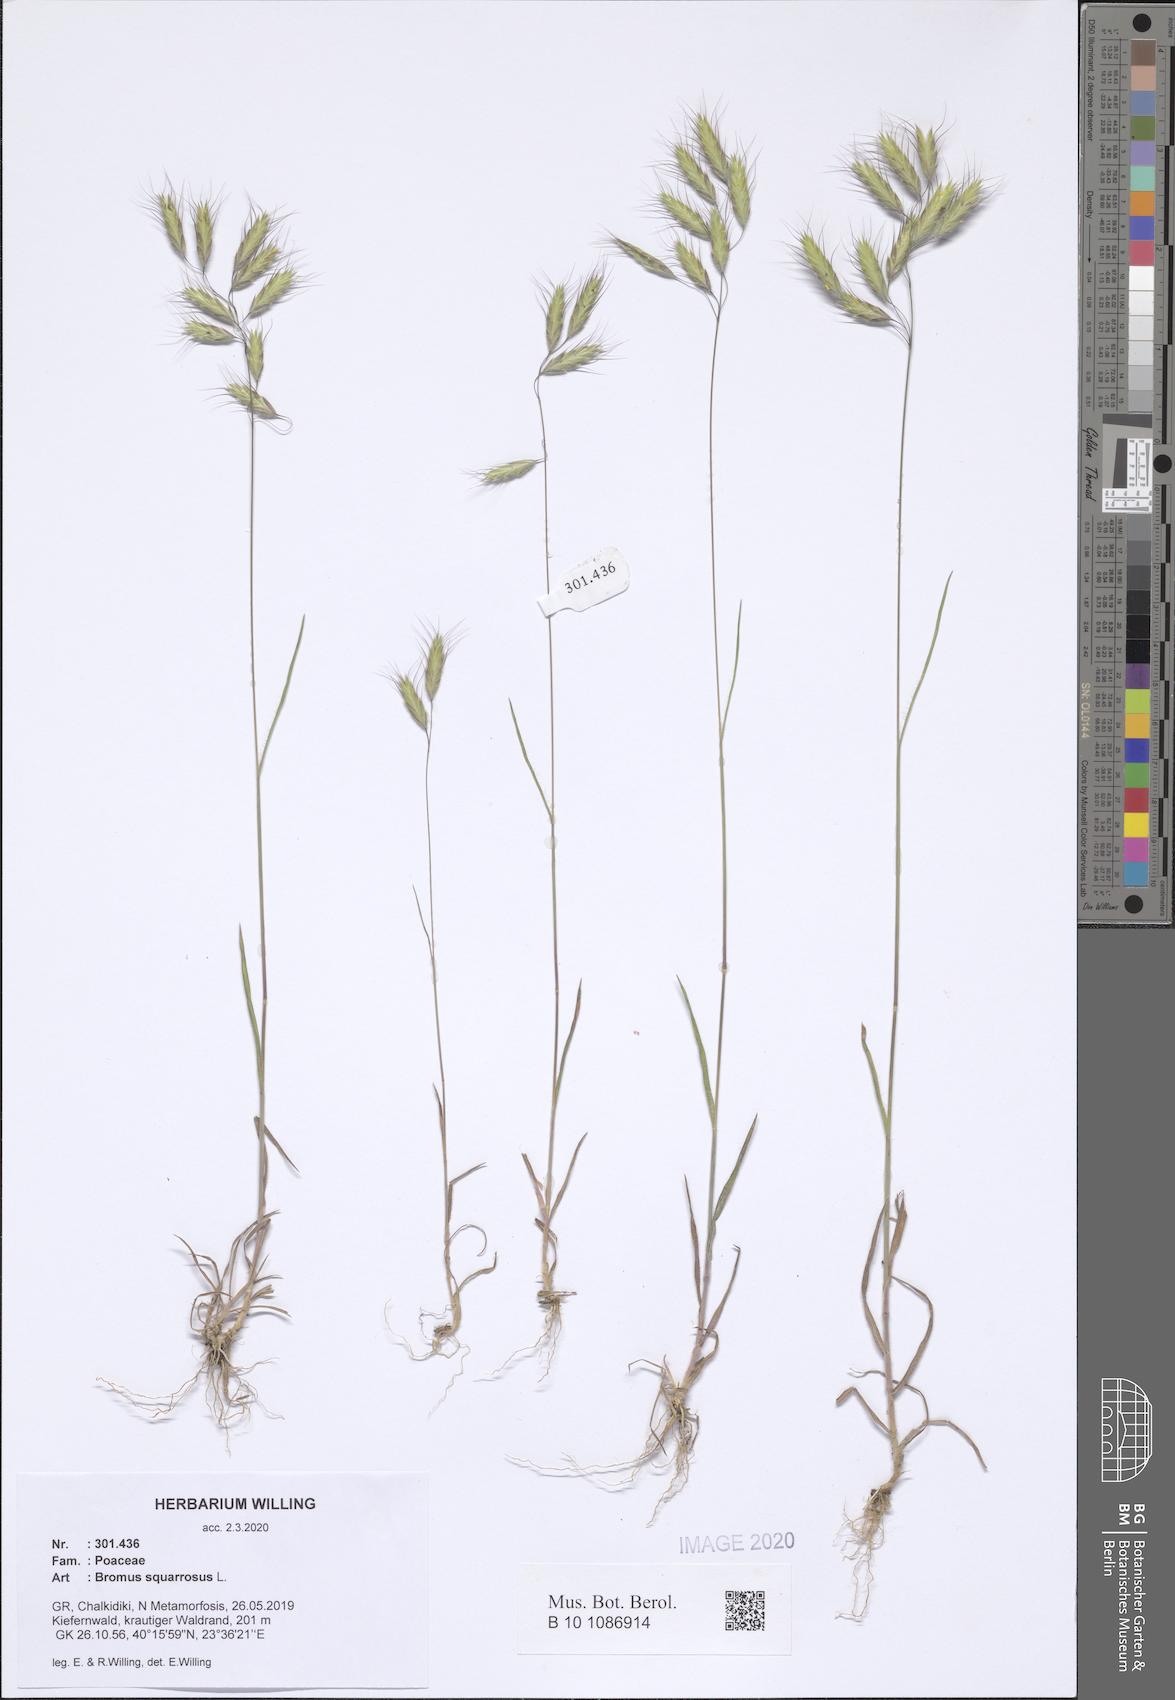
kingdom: Plantae
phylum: Tracheophyta
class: Liliopsida
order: Poales
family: Poaceae
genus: Bromus
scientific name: Bromus squarrosus
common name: Corn brome
